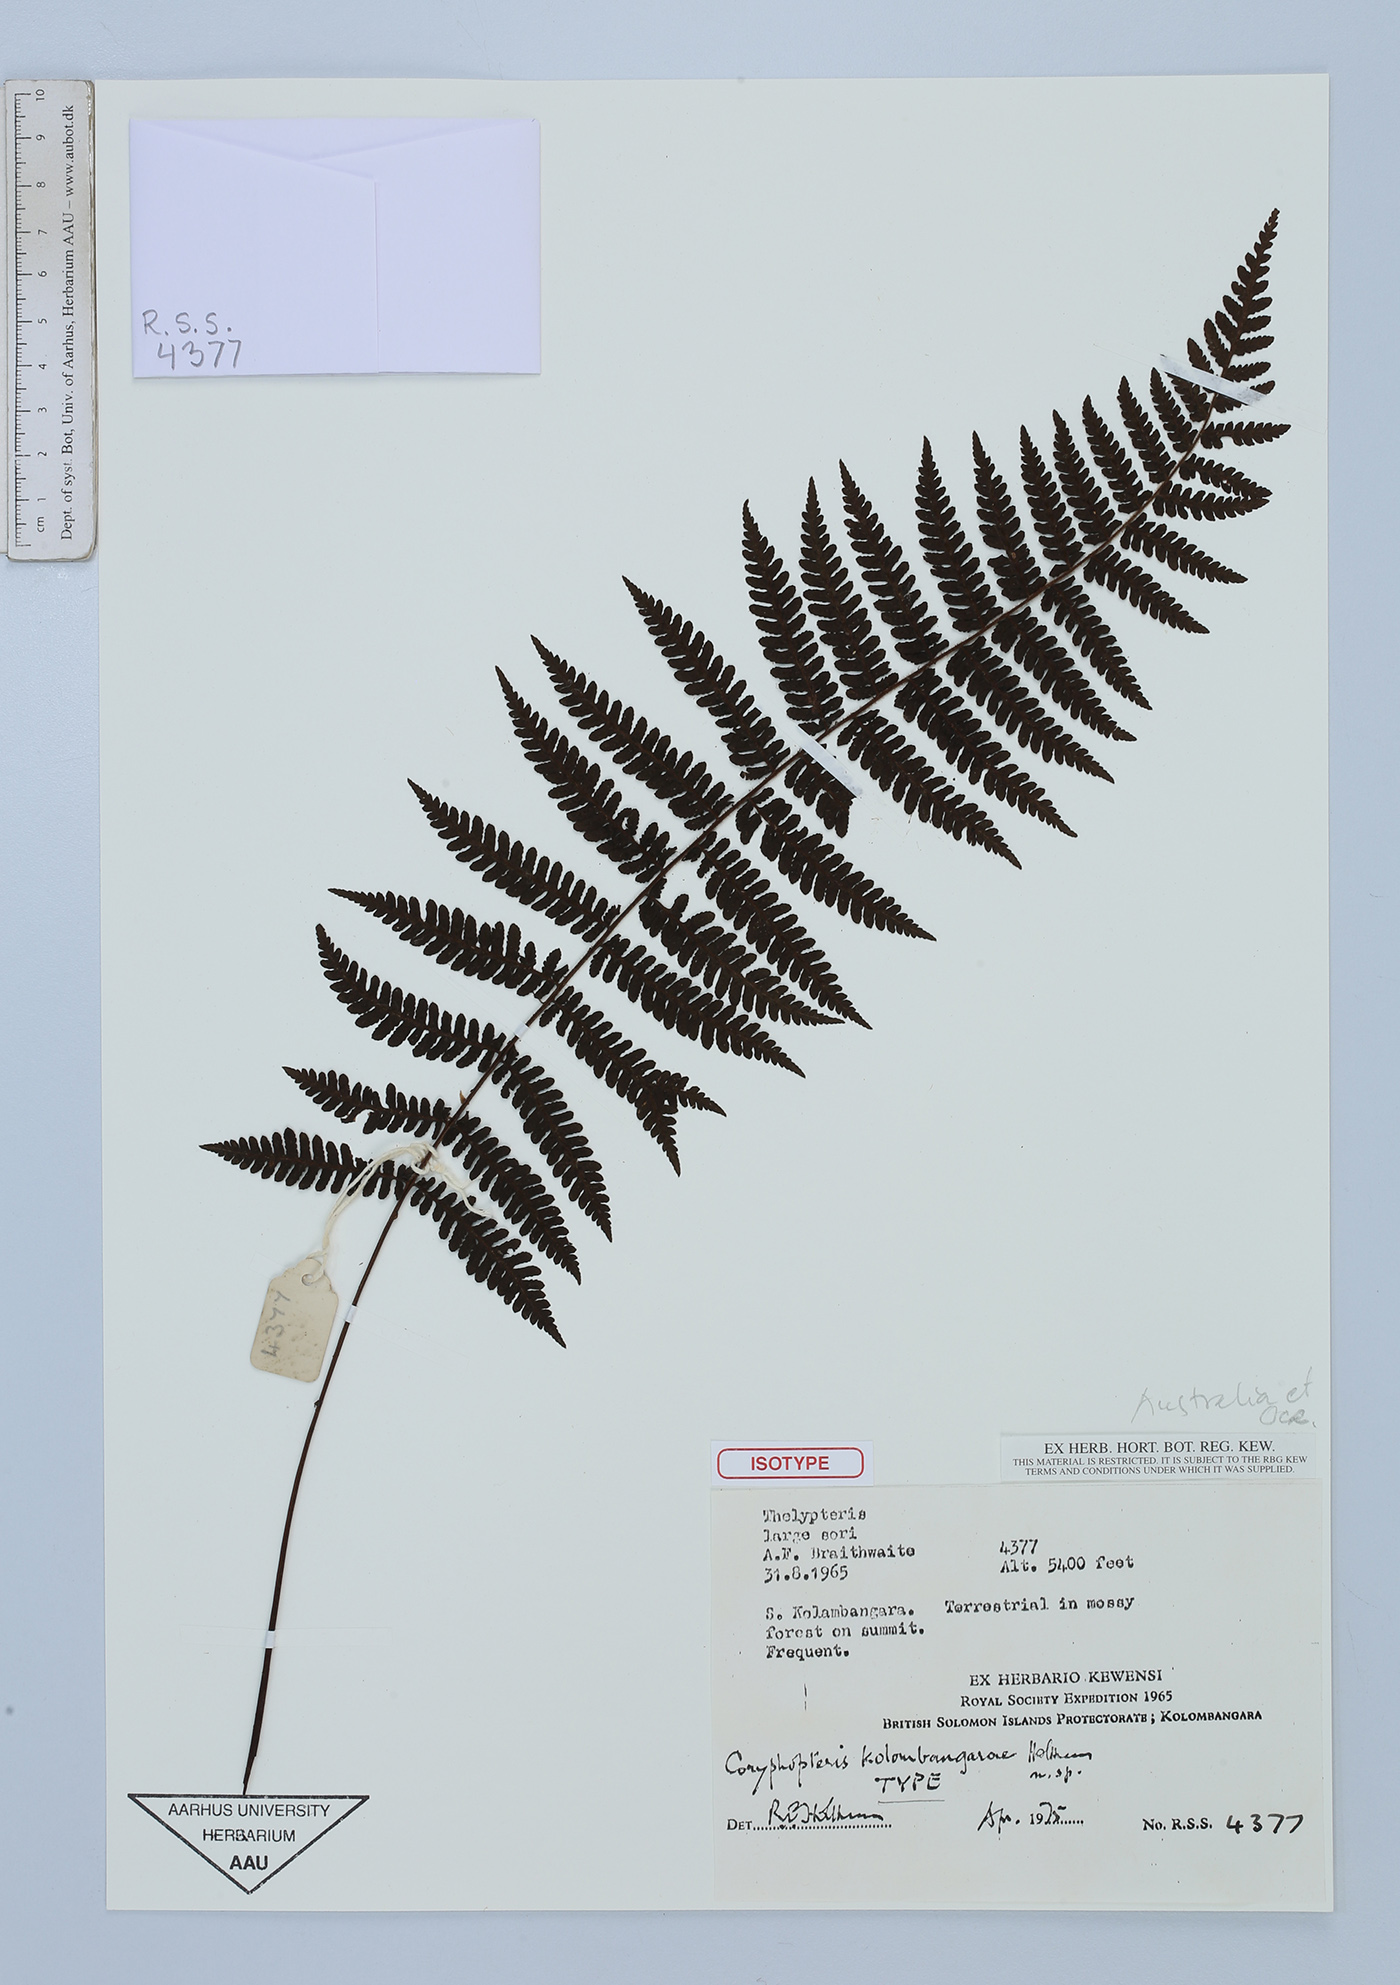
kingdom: Plantae
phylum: Tracheophyta
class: Polypodiopsida
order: Polypodiales
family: Thelypteridaceae
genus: Coryphopteris
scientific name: Coryphopteris kolombangarae
